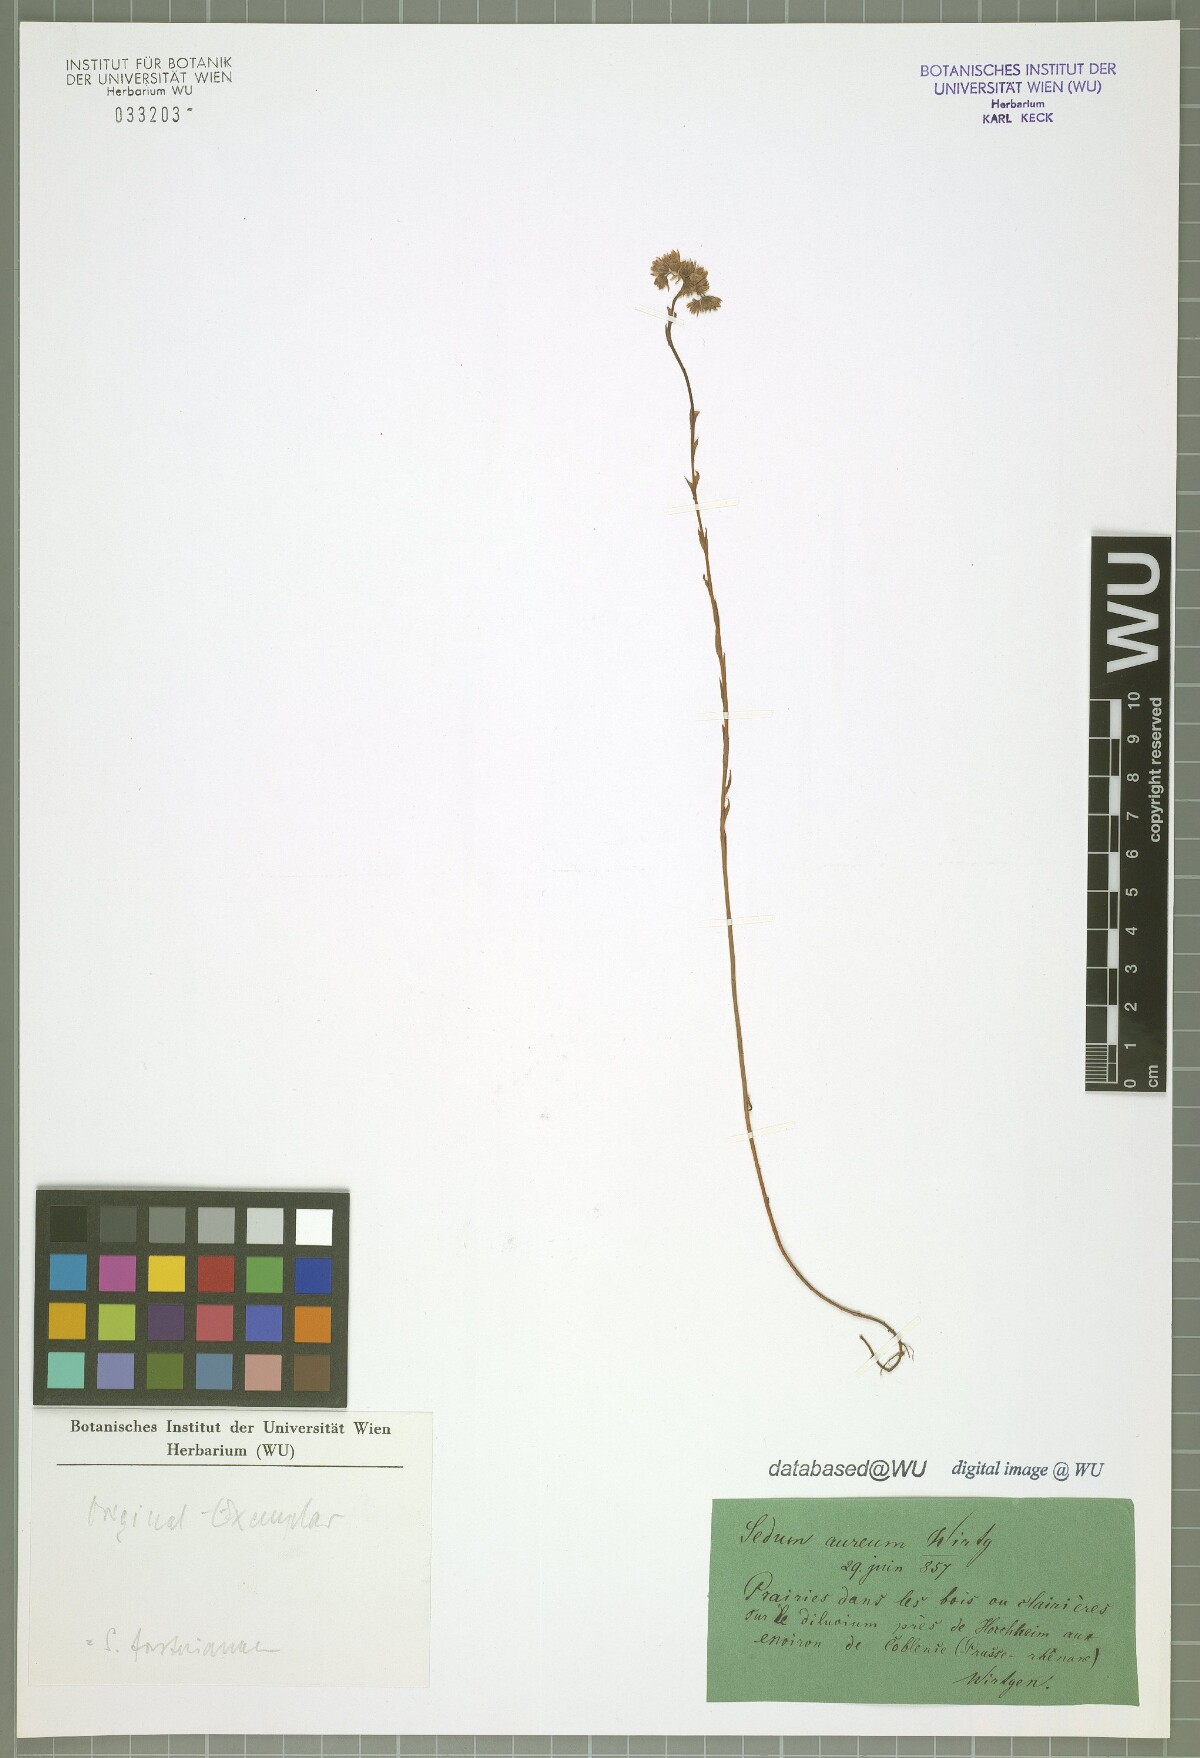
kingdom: Plantae
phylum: Tracheophyta
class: Magnoliopsida
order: Saxifragales
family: Crassulaceae
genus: Petrosedum
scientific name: Petrosedum forsterianum
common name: Forster's stonecrop
